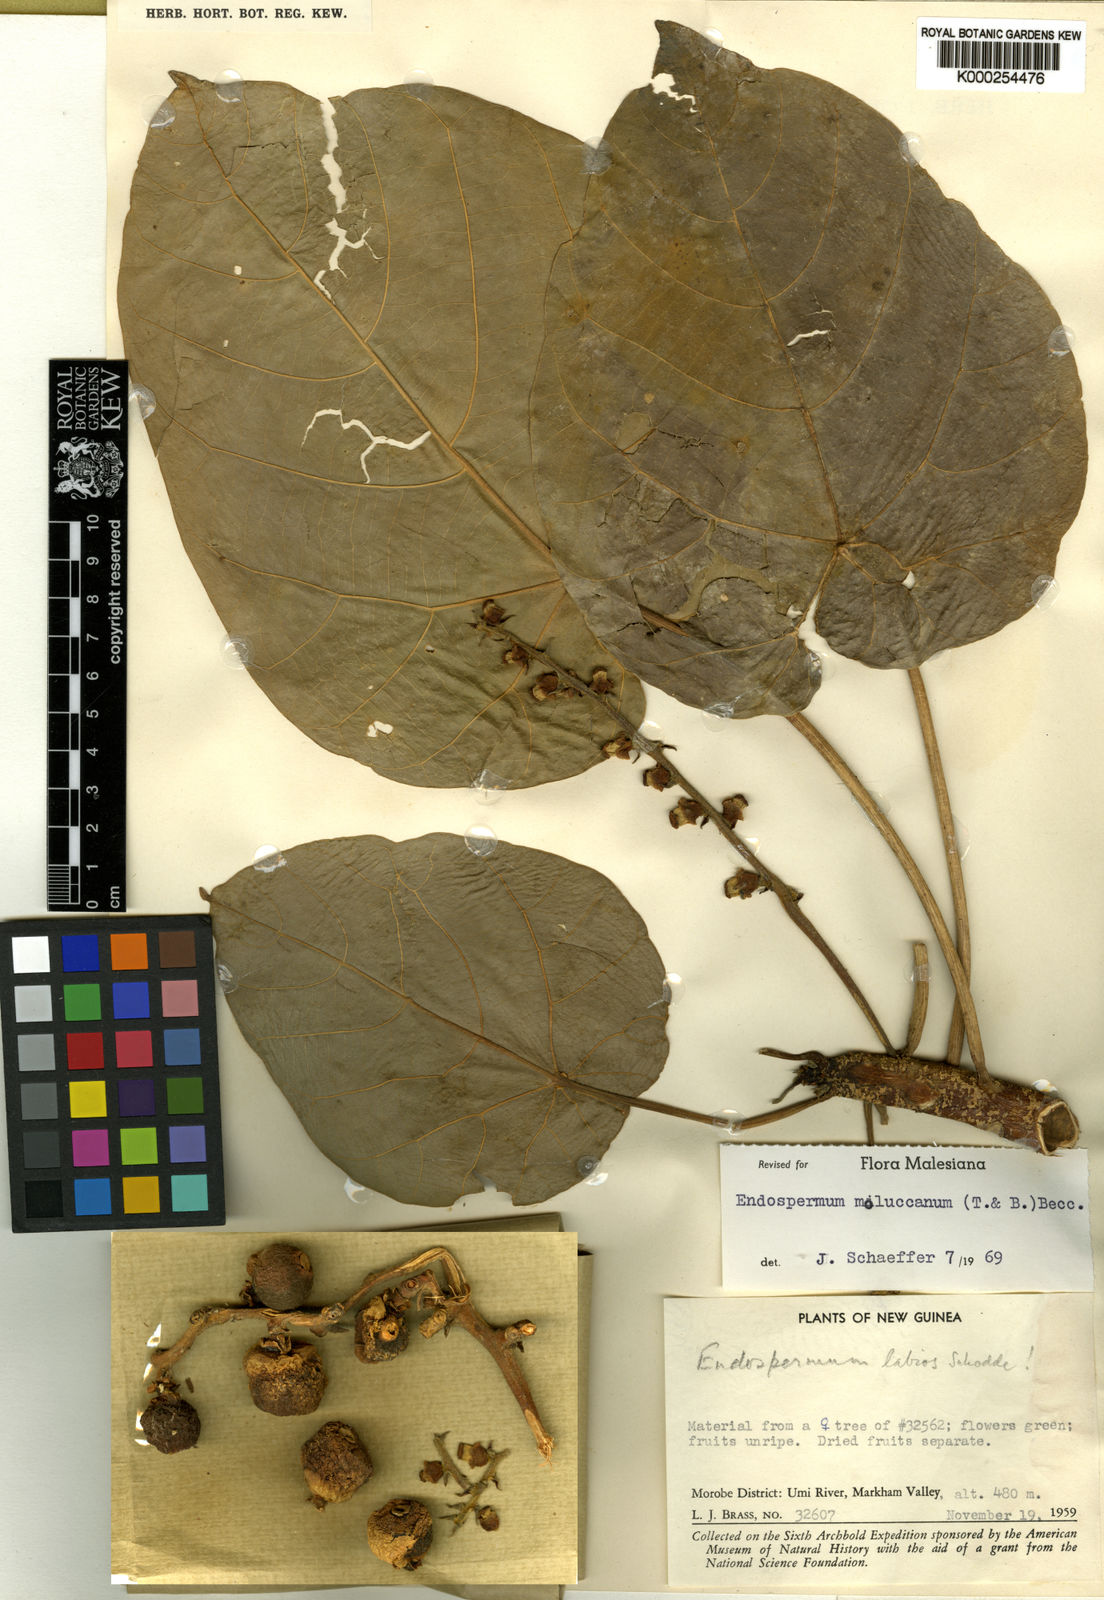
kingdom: Plantae
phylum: Tracheophyta
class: Magnoliopsida
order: Malpighiales
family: Euphorbiaceae
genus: Endospermum
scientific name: Endospermum moluccanum
